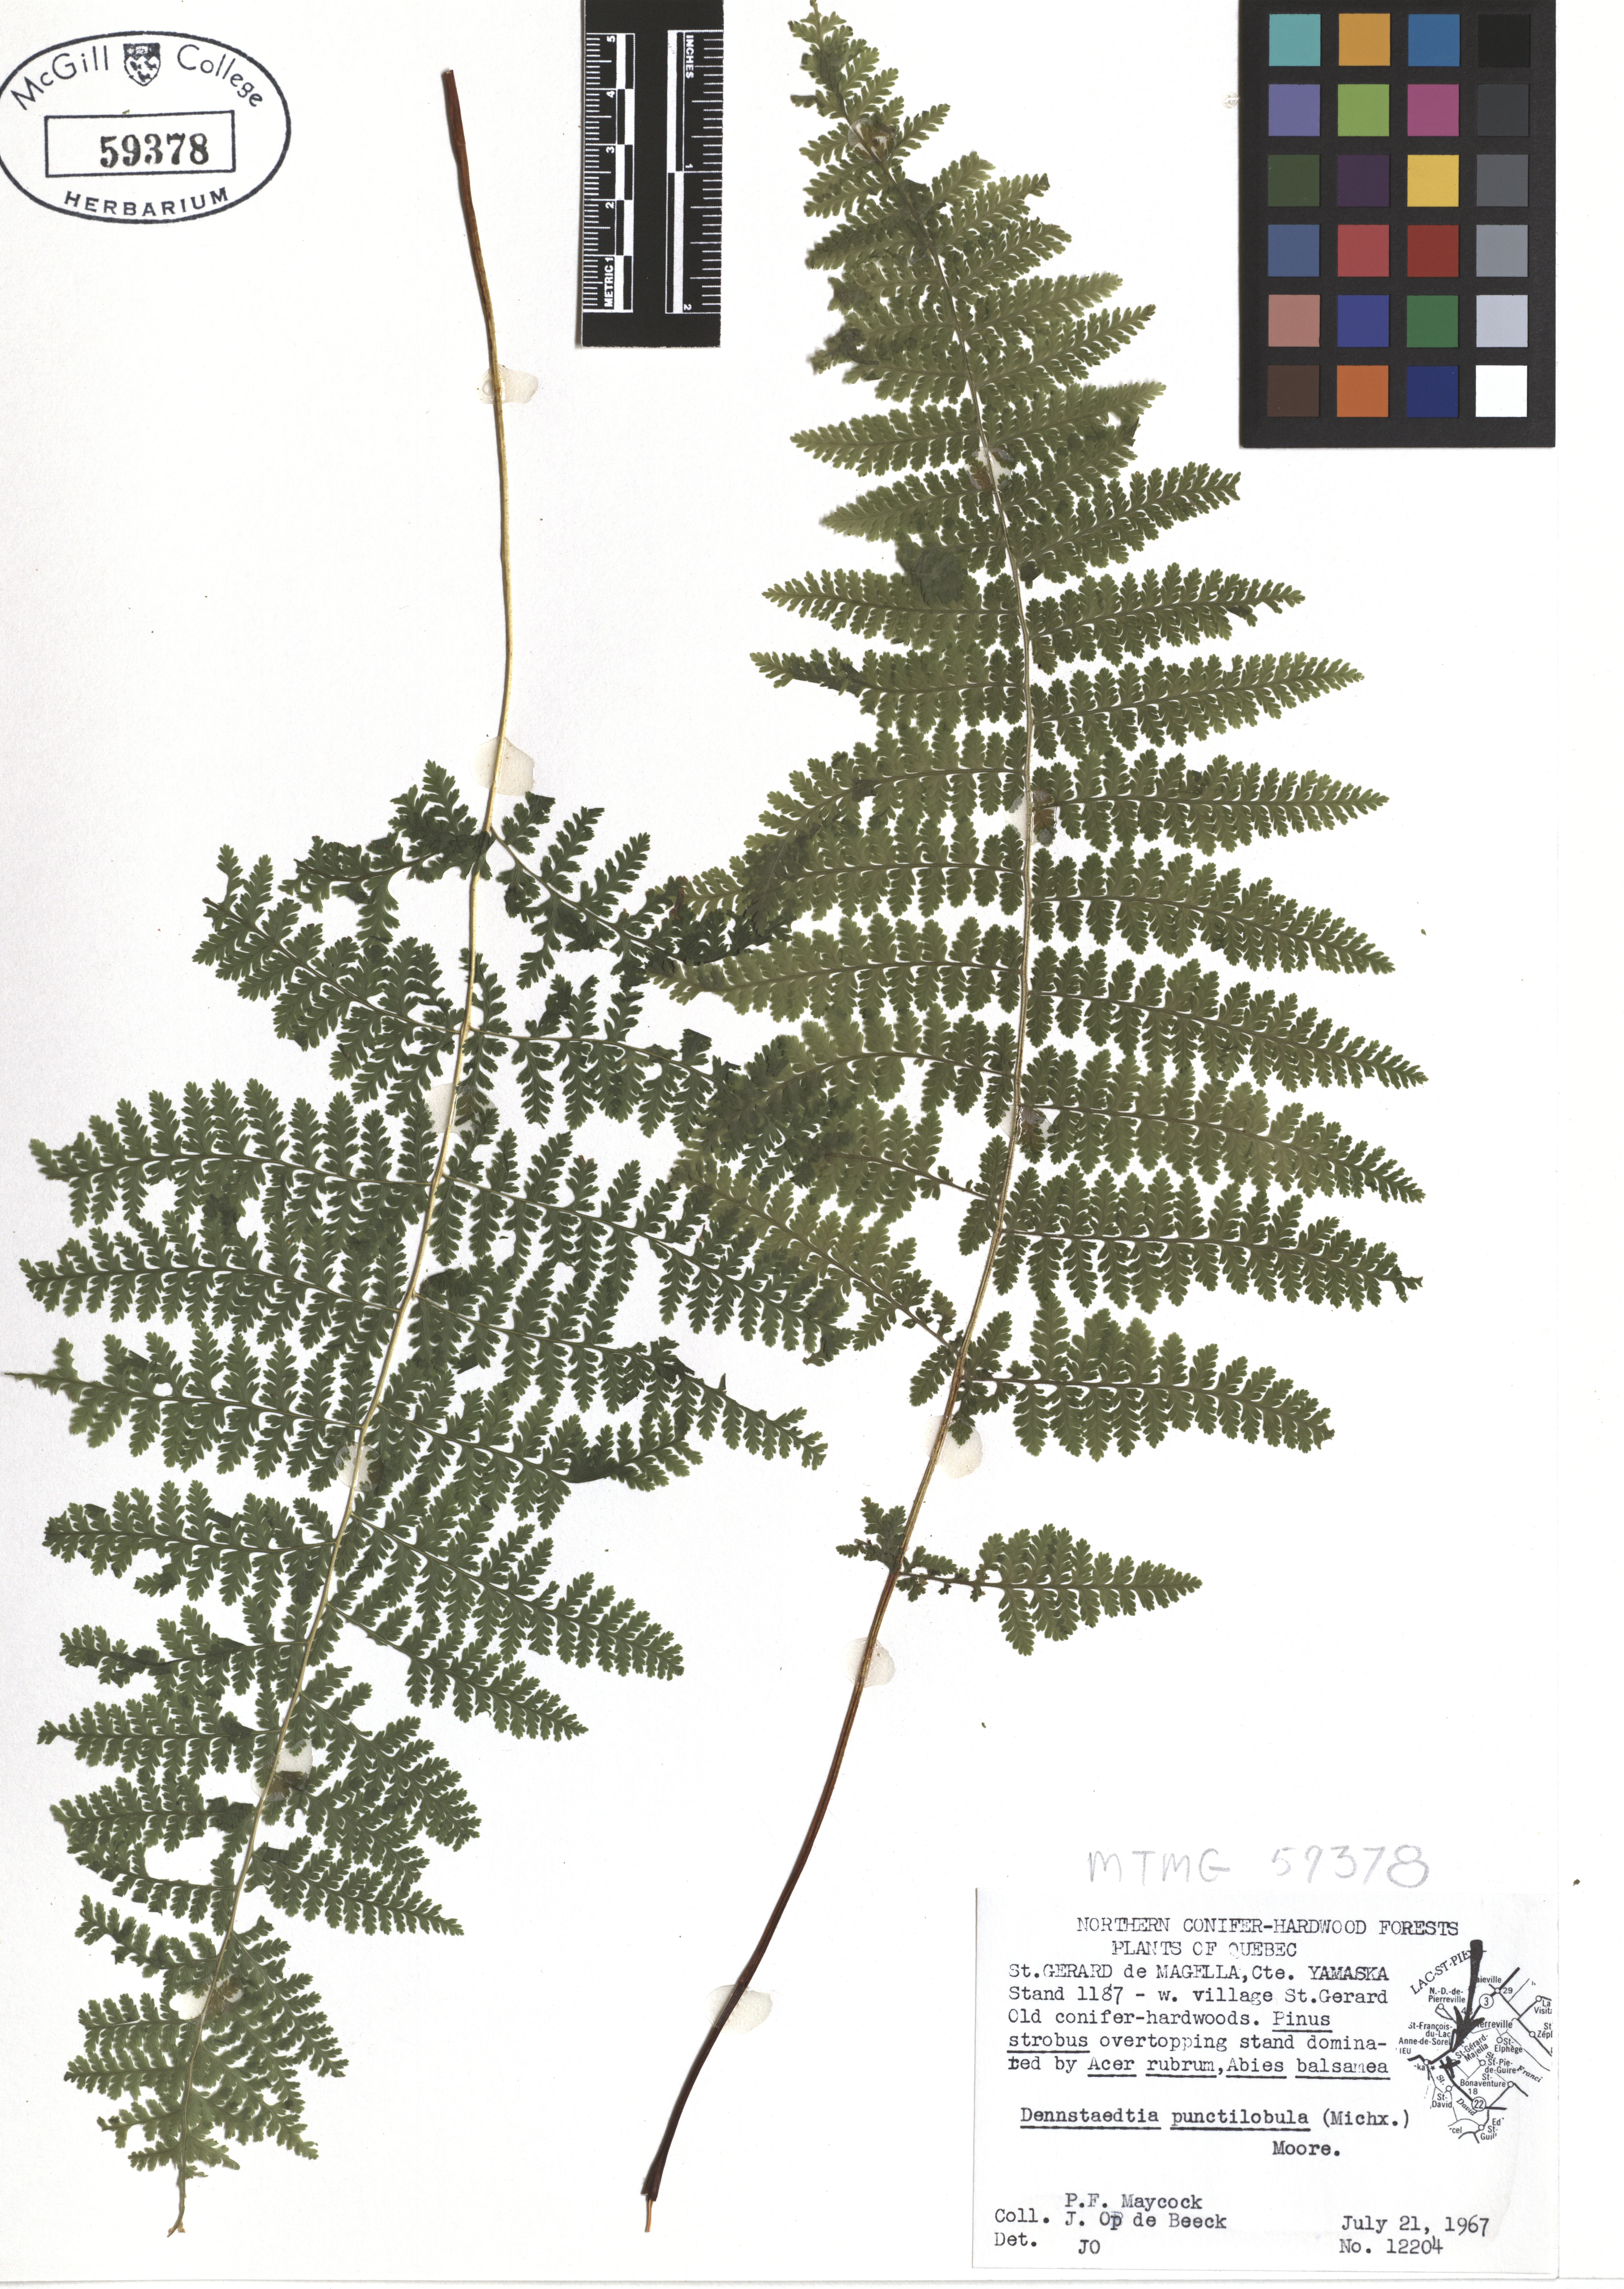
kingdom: Plantae
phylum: Tracheophyta
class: Polypodiopsida
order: Polypodiales
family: Dennstaedtiaceae
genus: Sitobolium
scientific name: Sitobolium punctilobum
